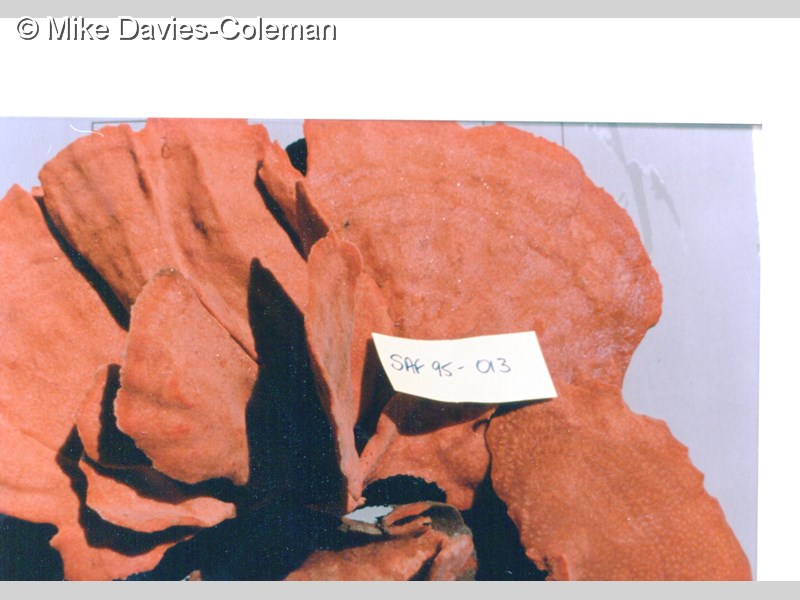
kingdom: Animalia
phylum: Porifera
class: Demospongiae
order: Poecilosclerida
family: Isodictyidae
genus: Isodictya
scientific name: Isodictya grandis
